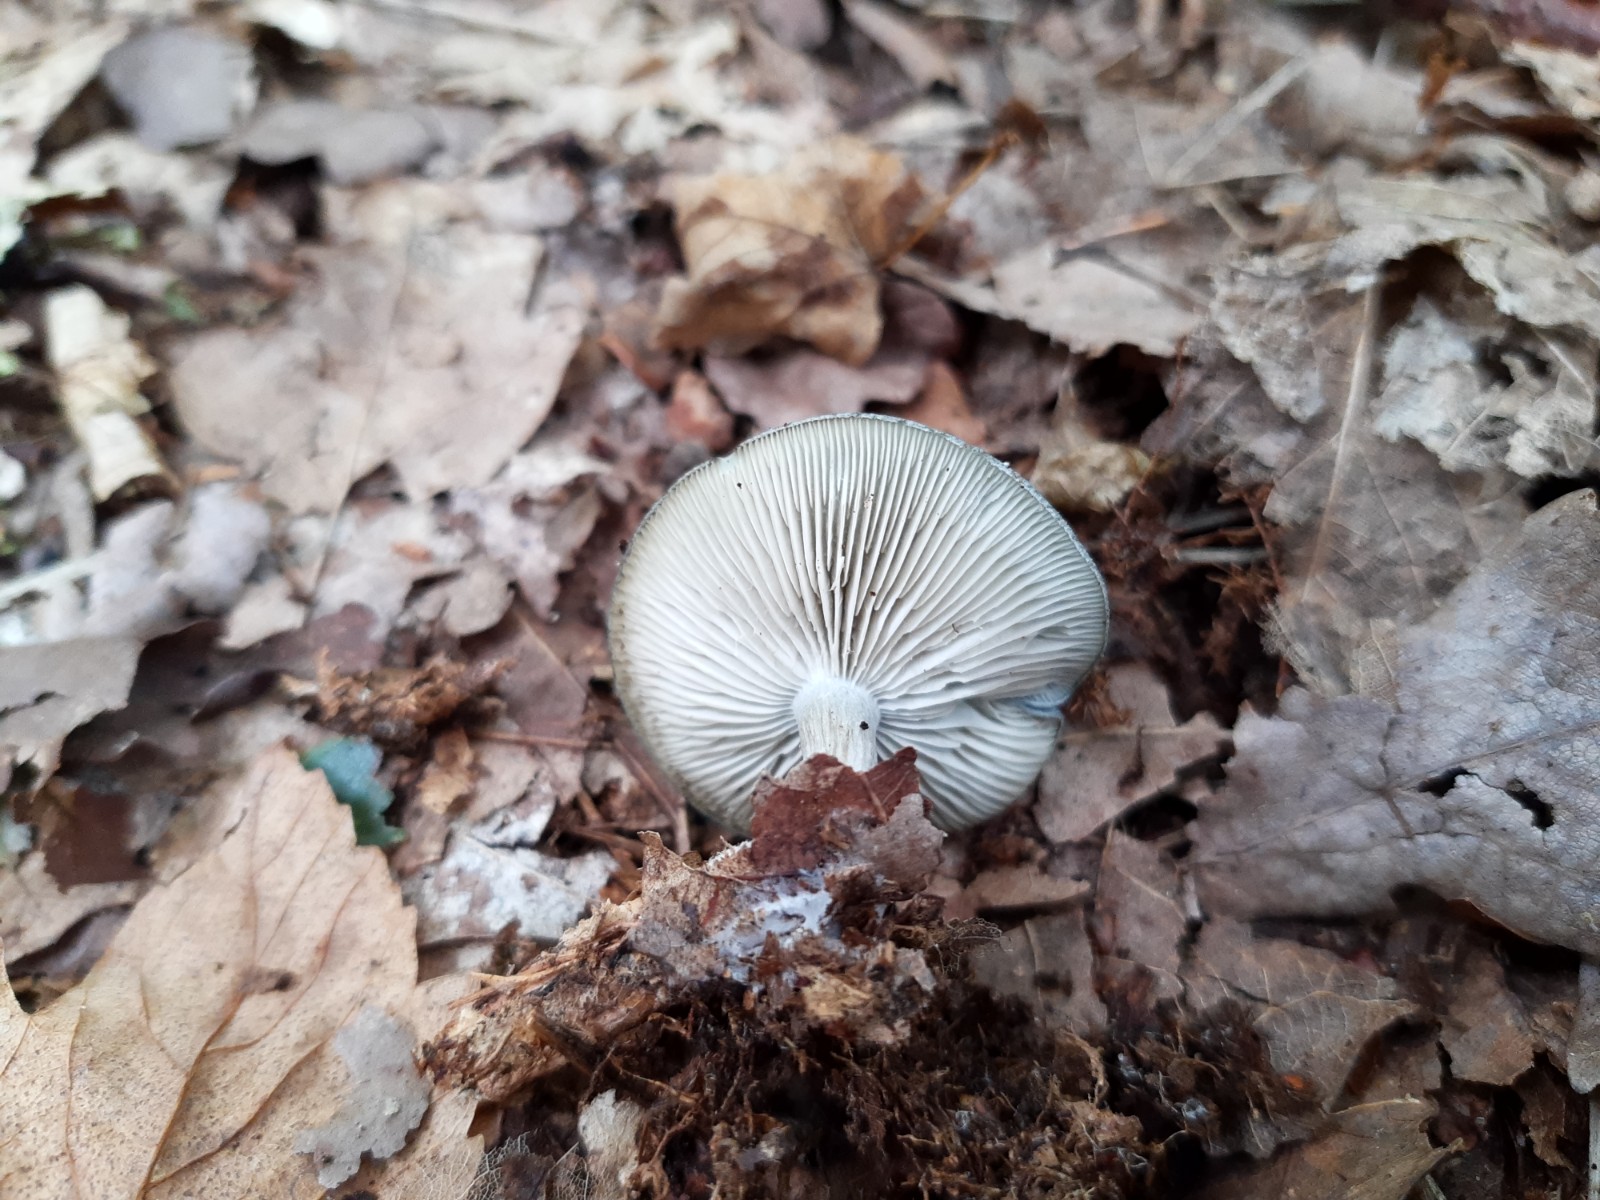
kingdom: Fungi
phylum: Basidiomycota
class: Agaricomycetes
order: Agaricales
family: Tricholomataceae
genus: Clitocybe
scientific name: Clitocybe odora
